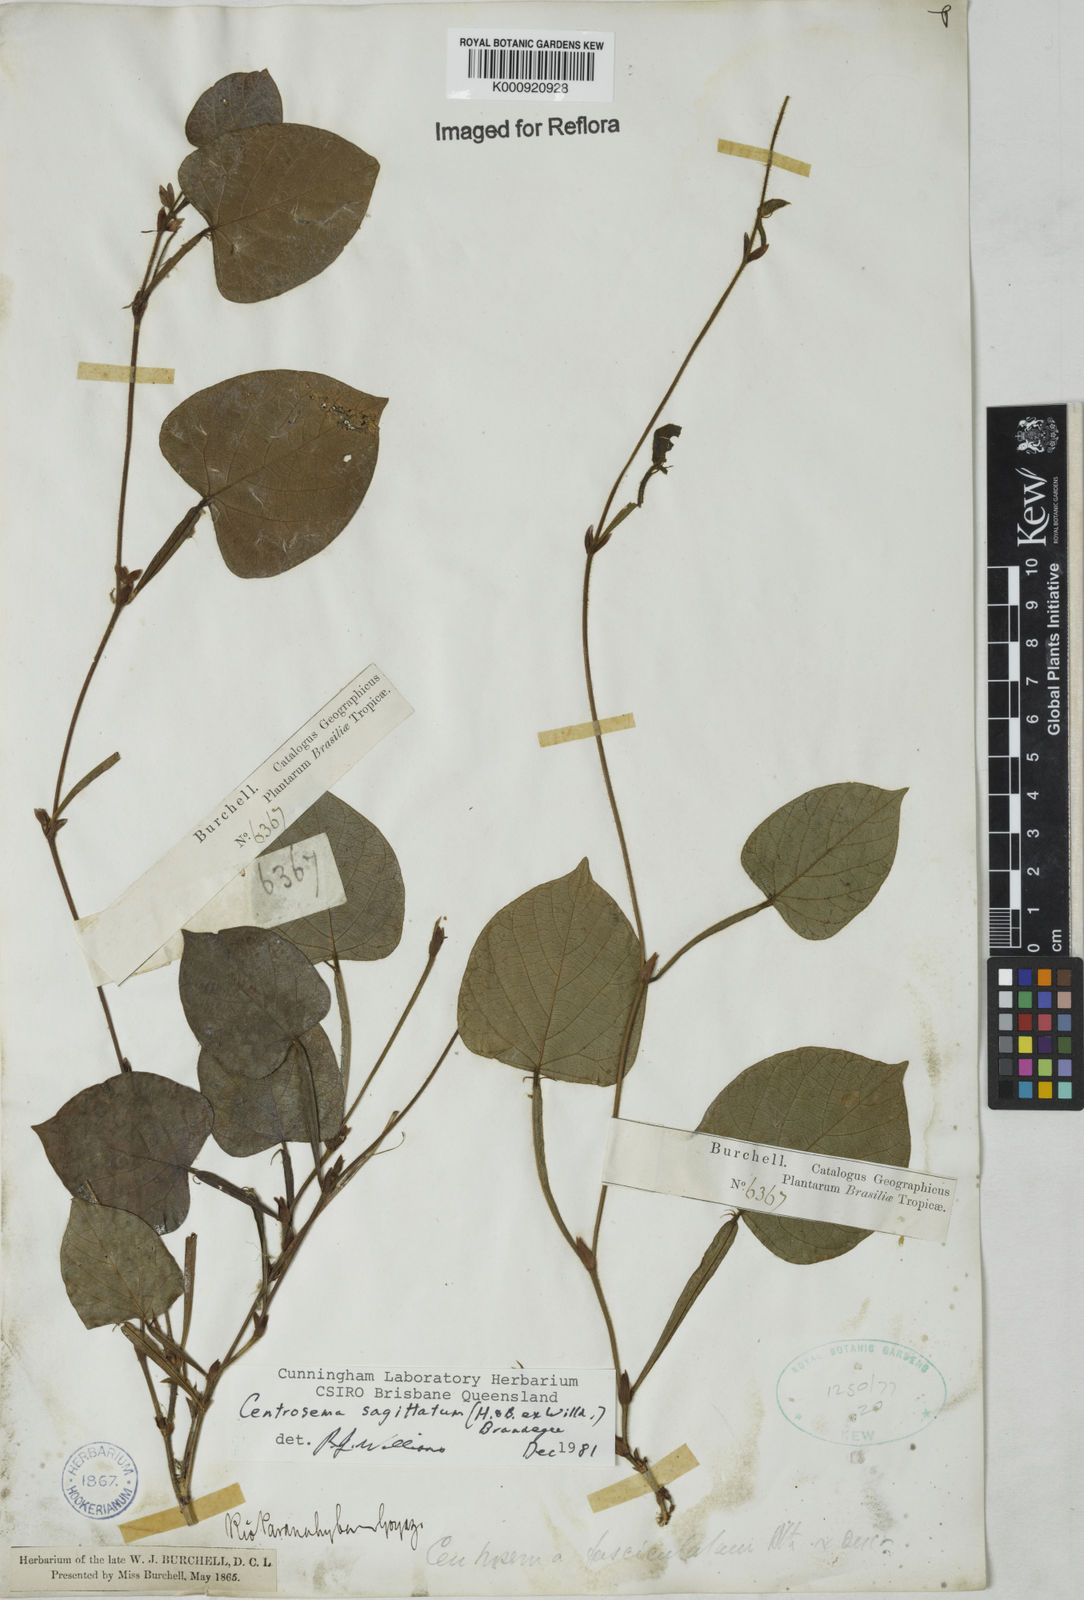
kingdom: Plantae
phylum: Tracheophyta
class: Magnoliopsida
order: Fabales
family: Fabaceae
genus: Centrosema
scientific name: Centrosema sagittatum
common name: Arrowleaf butterfly pea
